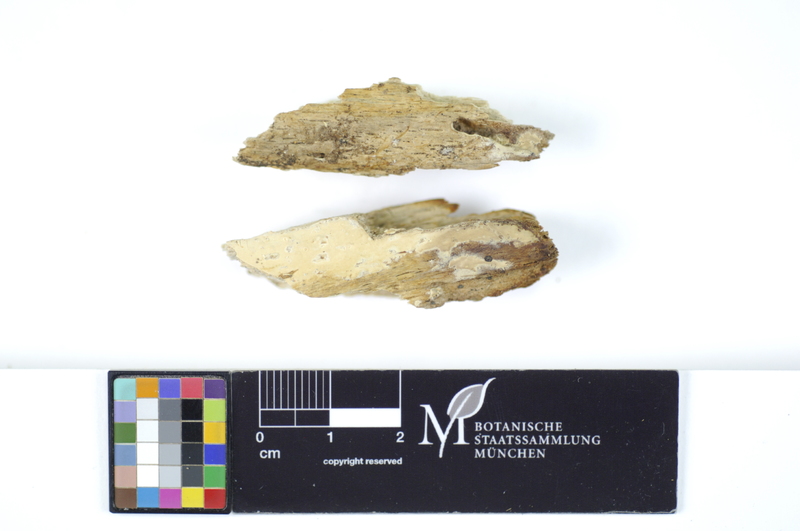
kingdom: Plantae
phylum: Tracheophyta
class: Magnoliopsida
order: Fagales
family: Fagaceae
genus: Fagus
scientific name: Fagus sylvatica
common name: Beech
